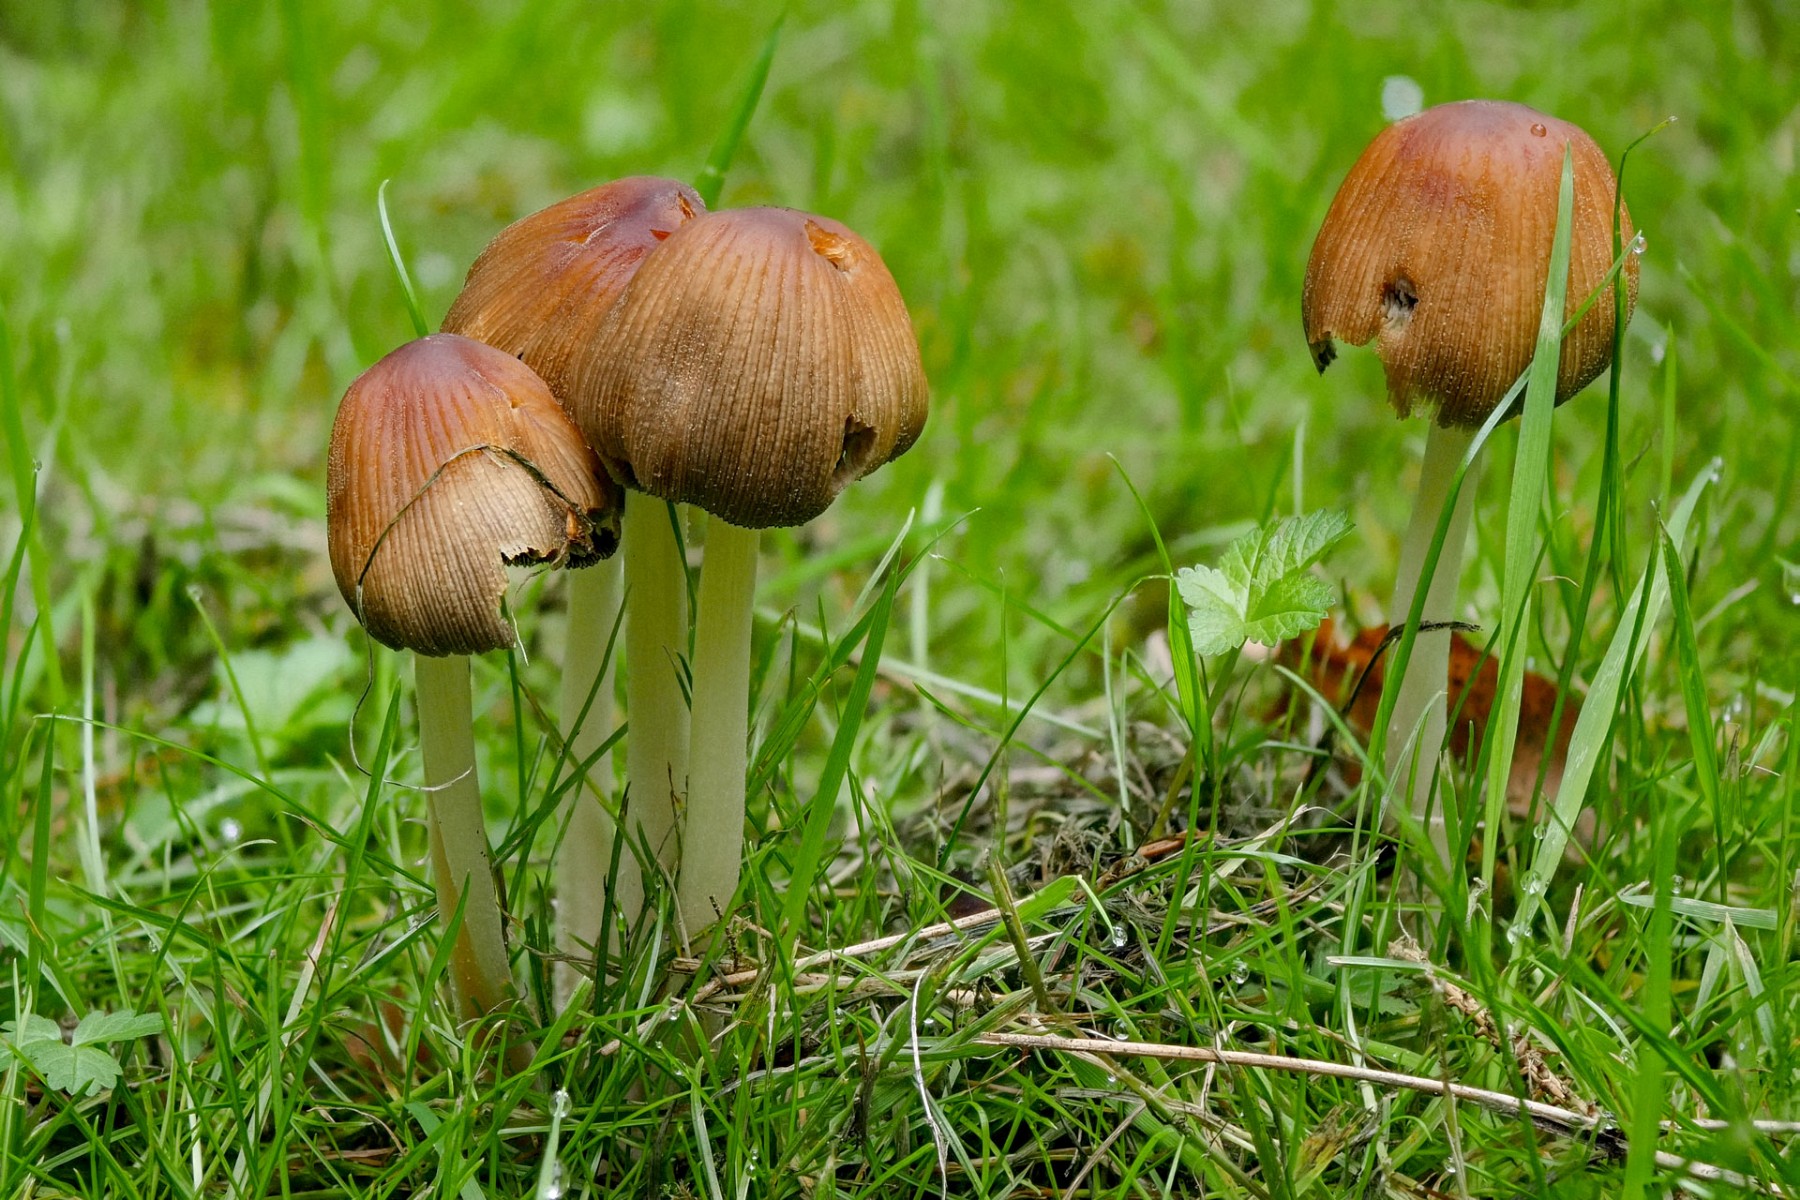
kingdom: Fungi
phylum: Basidiomycota
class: Agaricomycetes
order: Agaricales
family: Psathyrellaceae
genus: Coprinellus
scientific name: Coprinellus micaceus
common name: glimmer-blækhat
